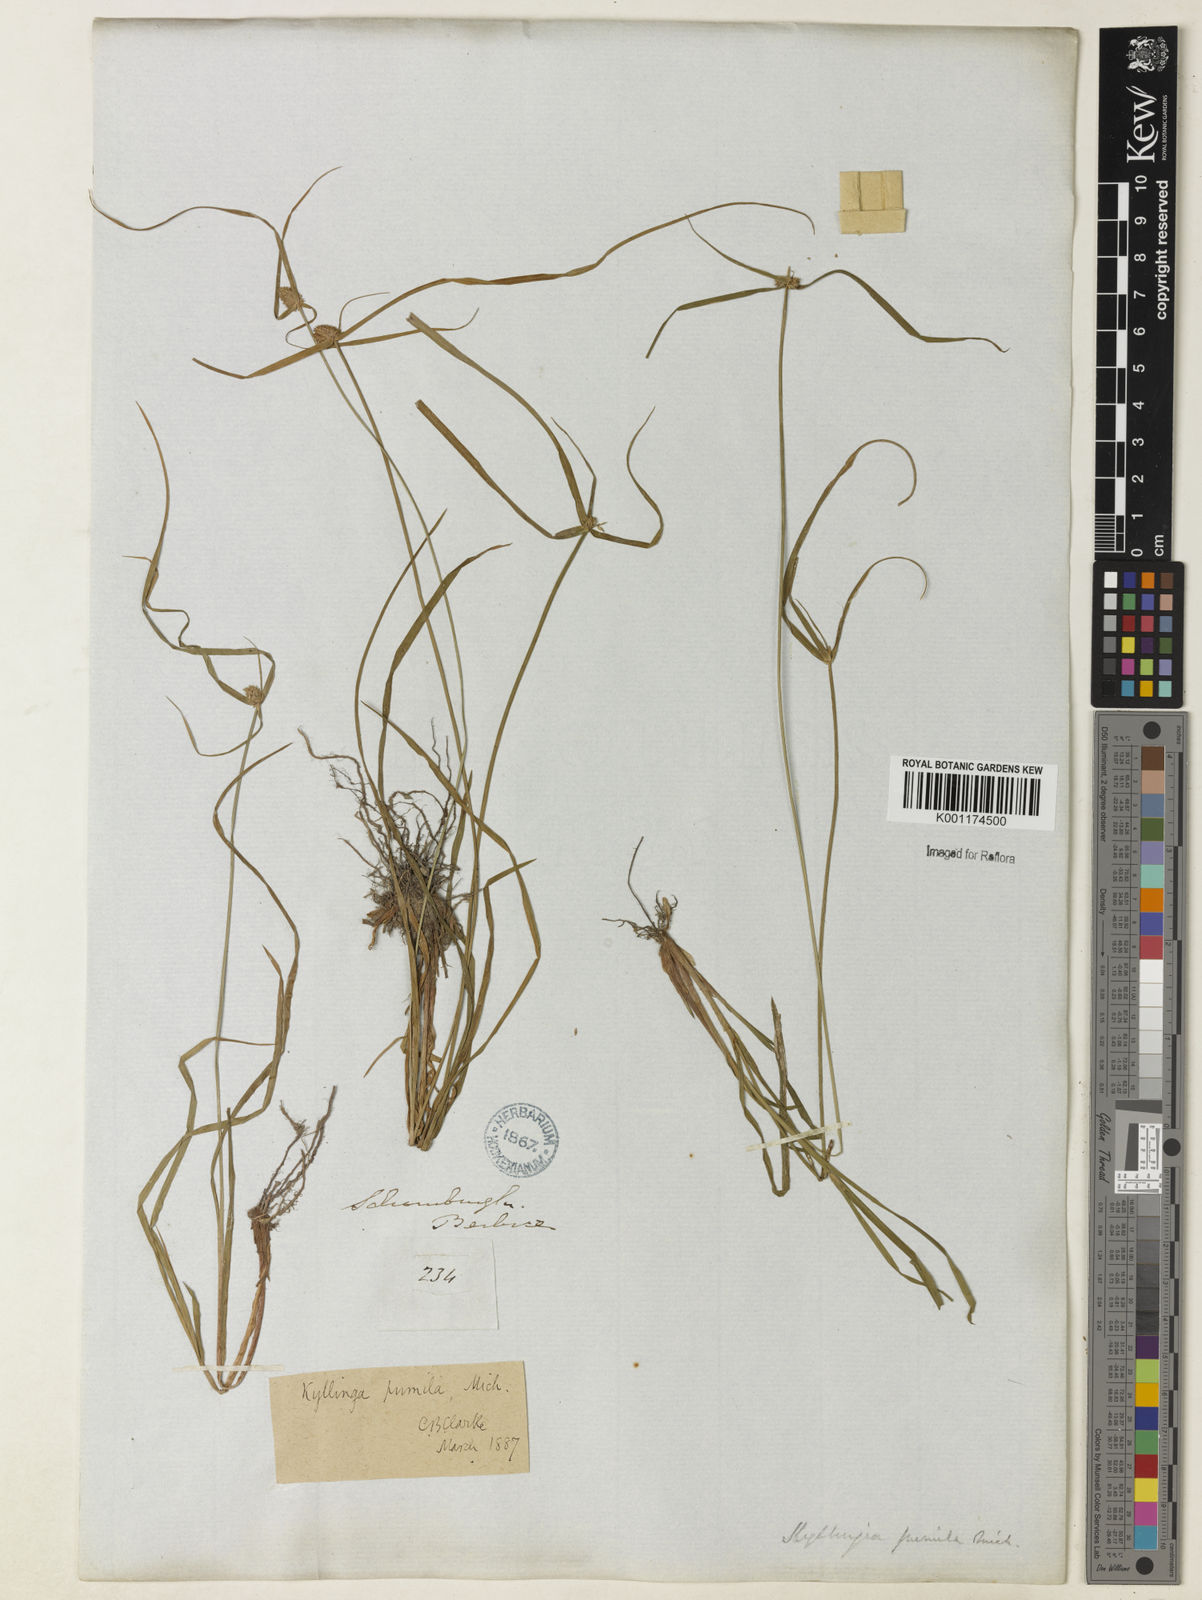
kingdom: Plantae
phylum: Tracheophyta
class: Liliopsida
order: Poales
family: Cyperaceae
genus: Cyperus
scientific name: Cyperus
